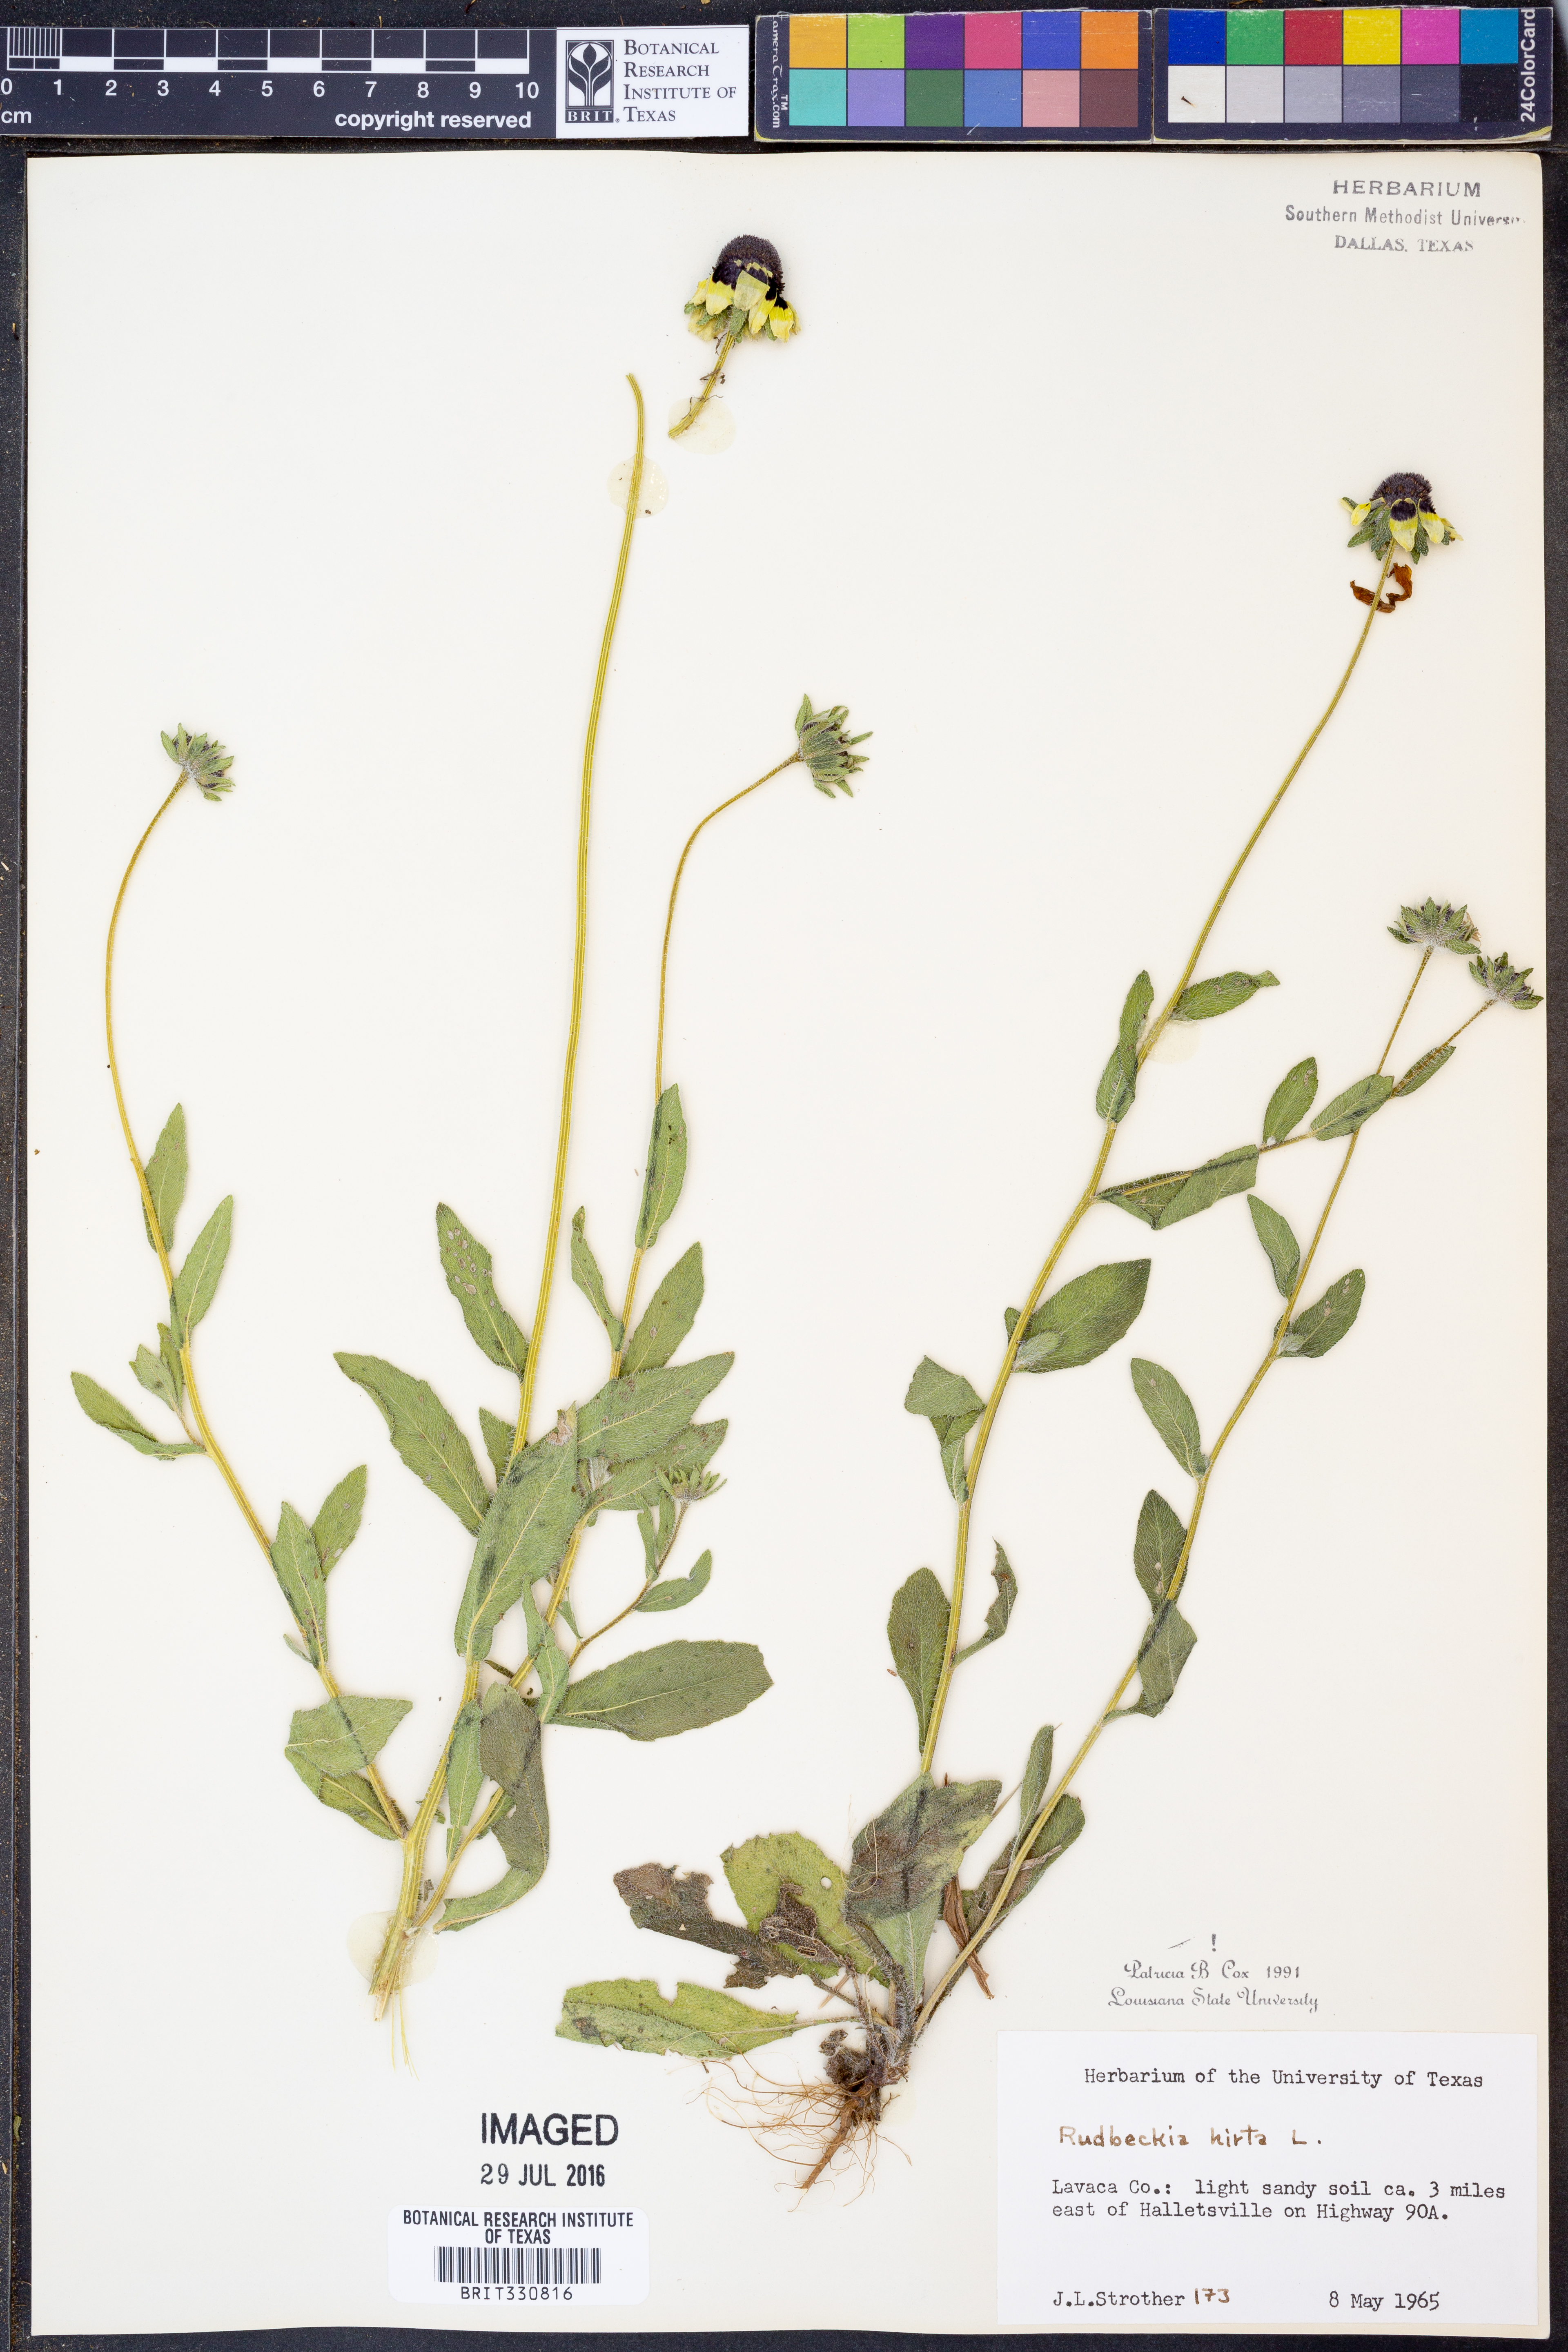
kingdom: Plantae
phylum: Tracheophyta
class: Magnoliopsida
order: Asterales
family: Asteraceae
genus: Rudbeckia
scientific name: Rudbeckia hirta
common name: Black-eyed-susan
